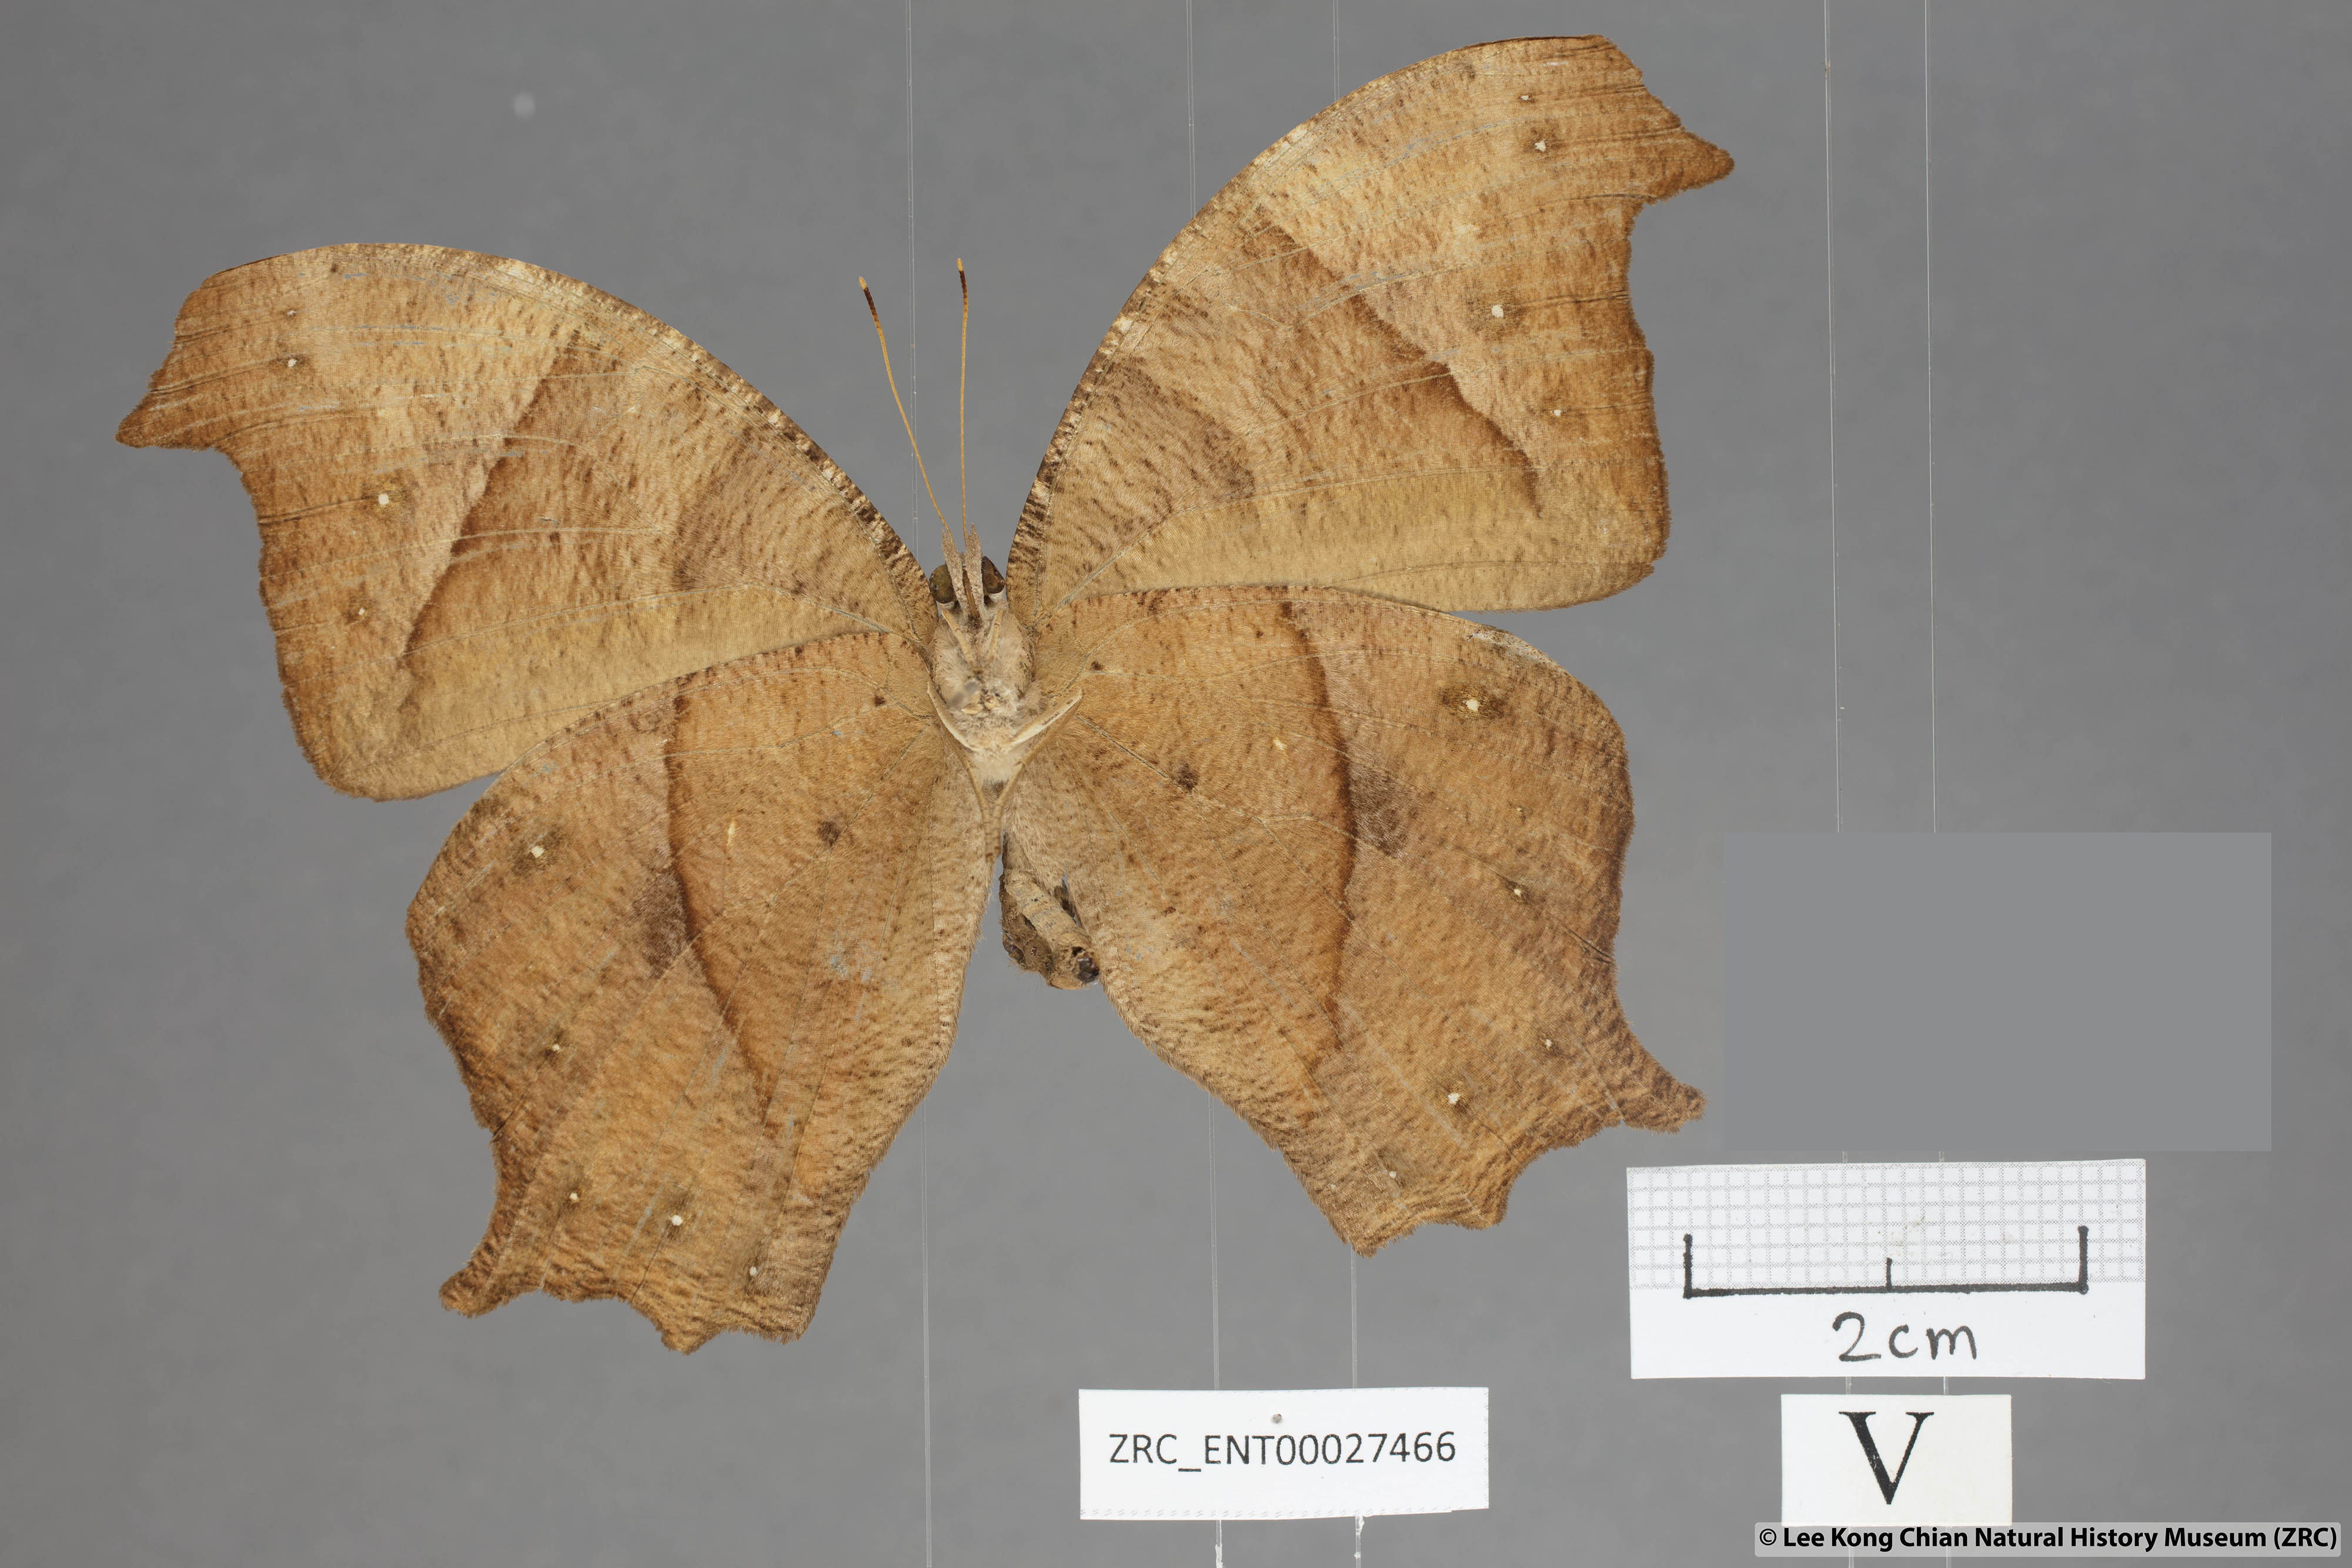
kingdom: Animalia
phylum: Arthropoda
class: Insecta
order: Lepidoptera
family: Nymphalidae
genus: Melanitis
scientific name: Melanitis zitenius
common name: Great evening brown
